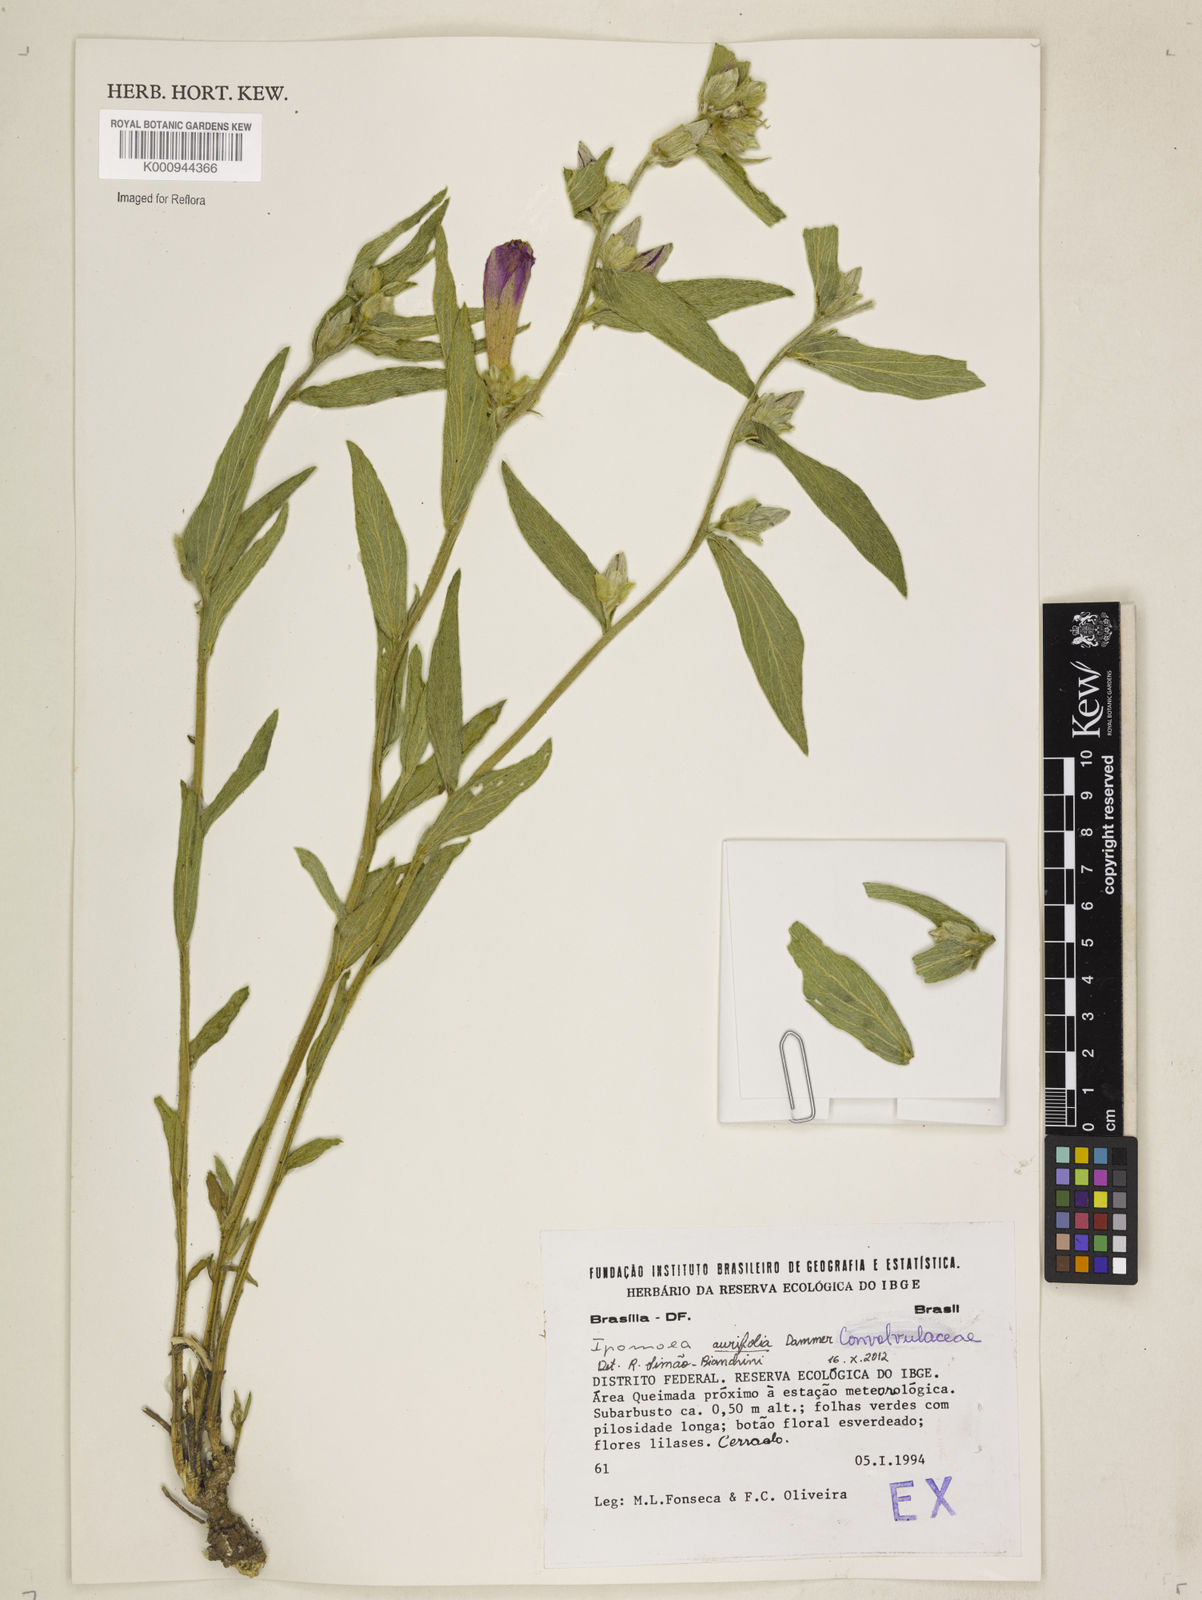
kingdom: Plantae
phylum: Tracheophyta
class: Magnoliopsida
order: Solanales
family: Convolvulaceae
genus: Ipomoea
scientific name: Ipomoea aurifolia
